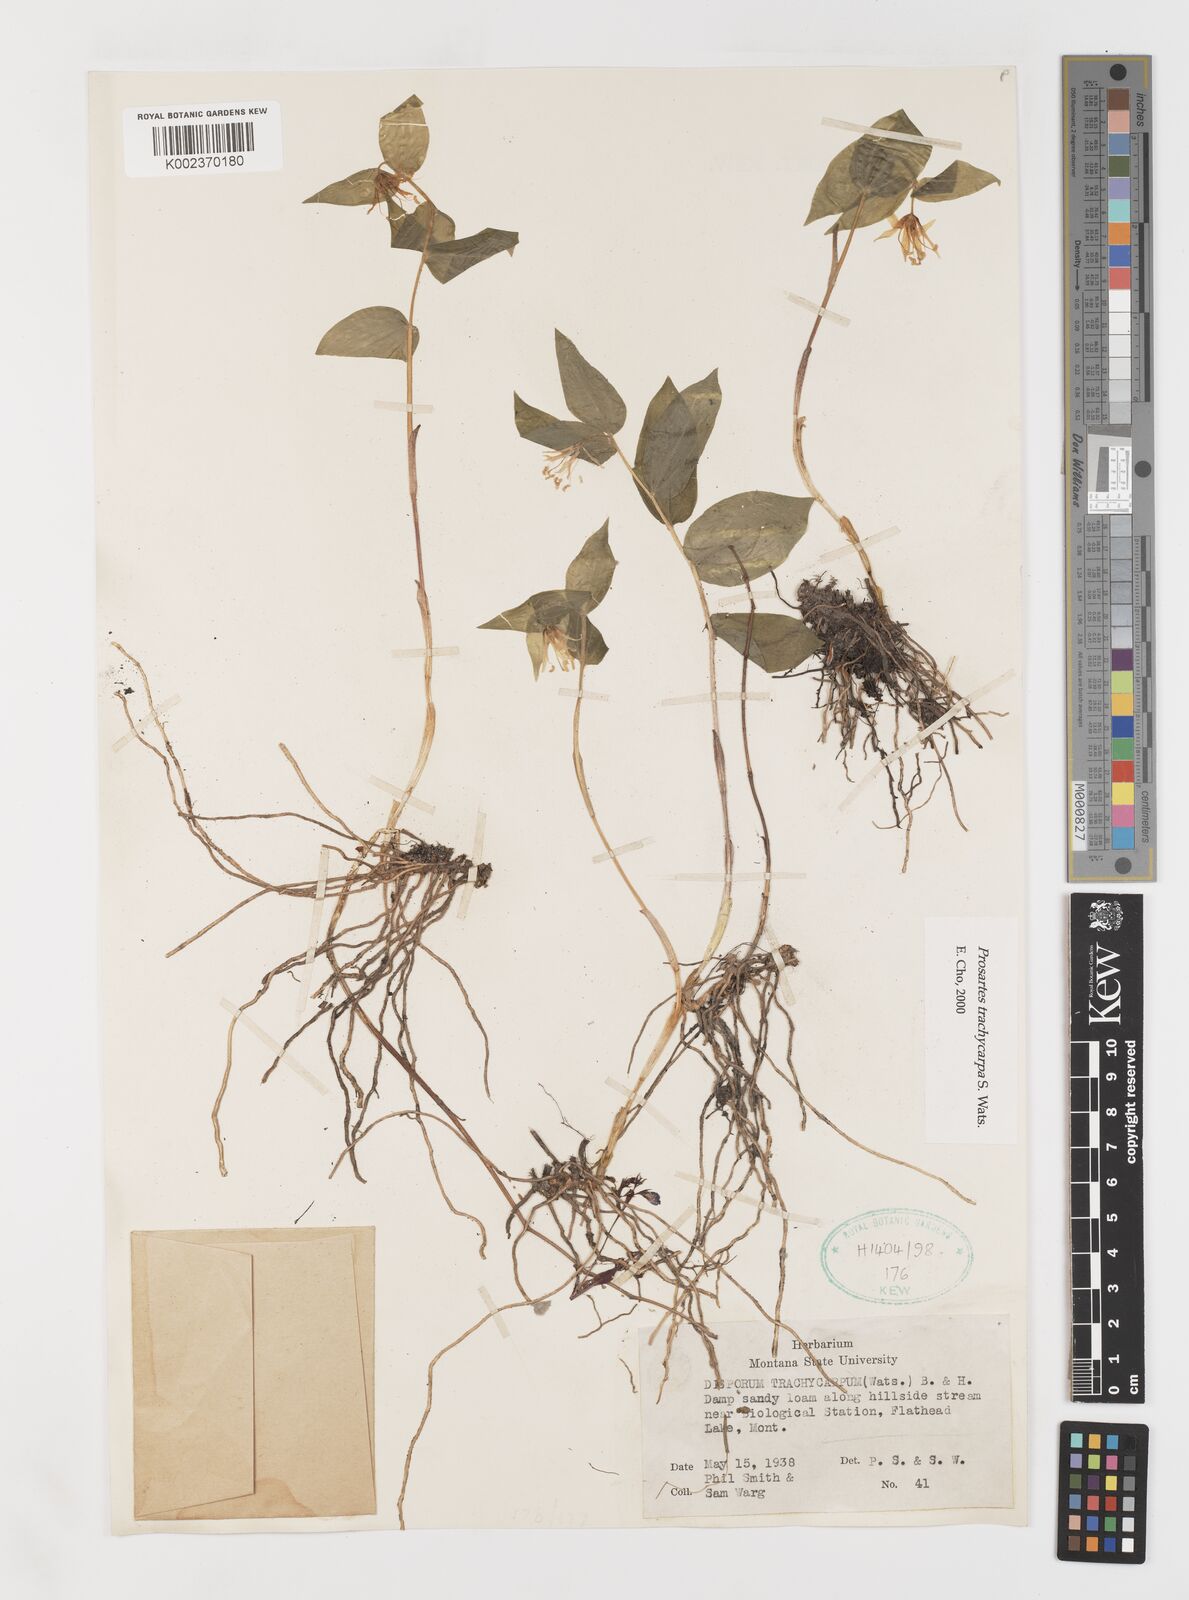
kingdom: Plantae
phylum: Tracheophyta
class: Liliopsida
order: Liliales
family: Liliaceae
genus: Prosartes
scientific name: Prosartes trachycarpa
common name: Rough-fruit fairy-bells
